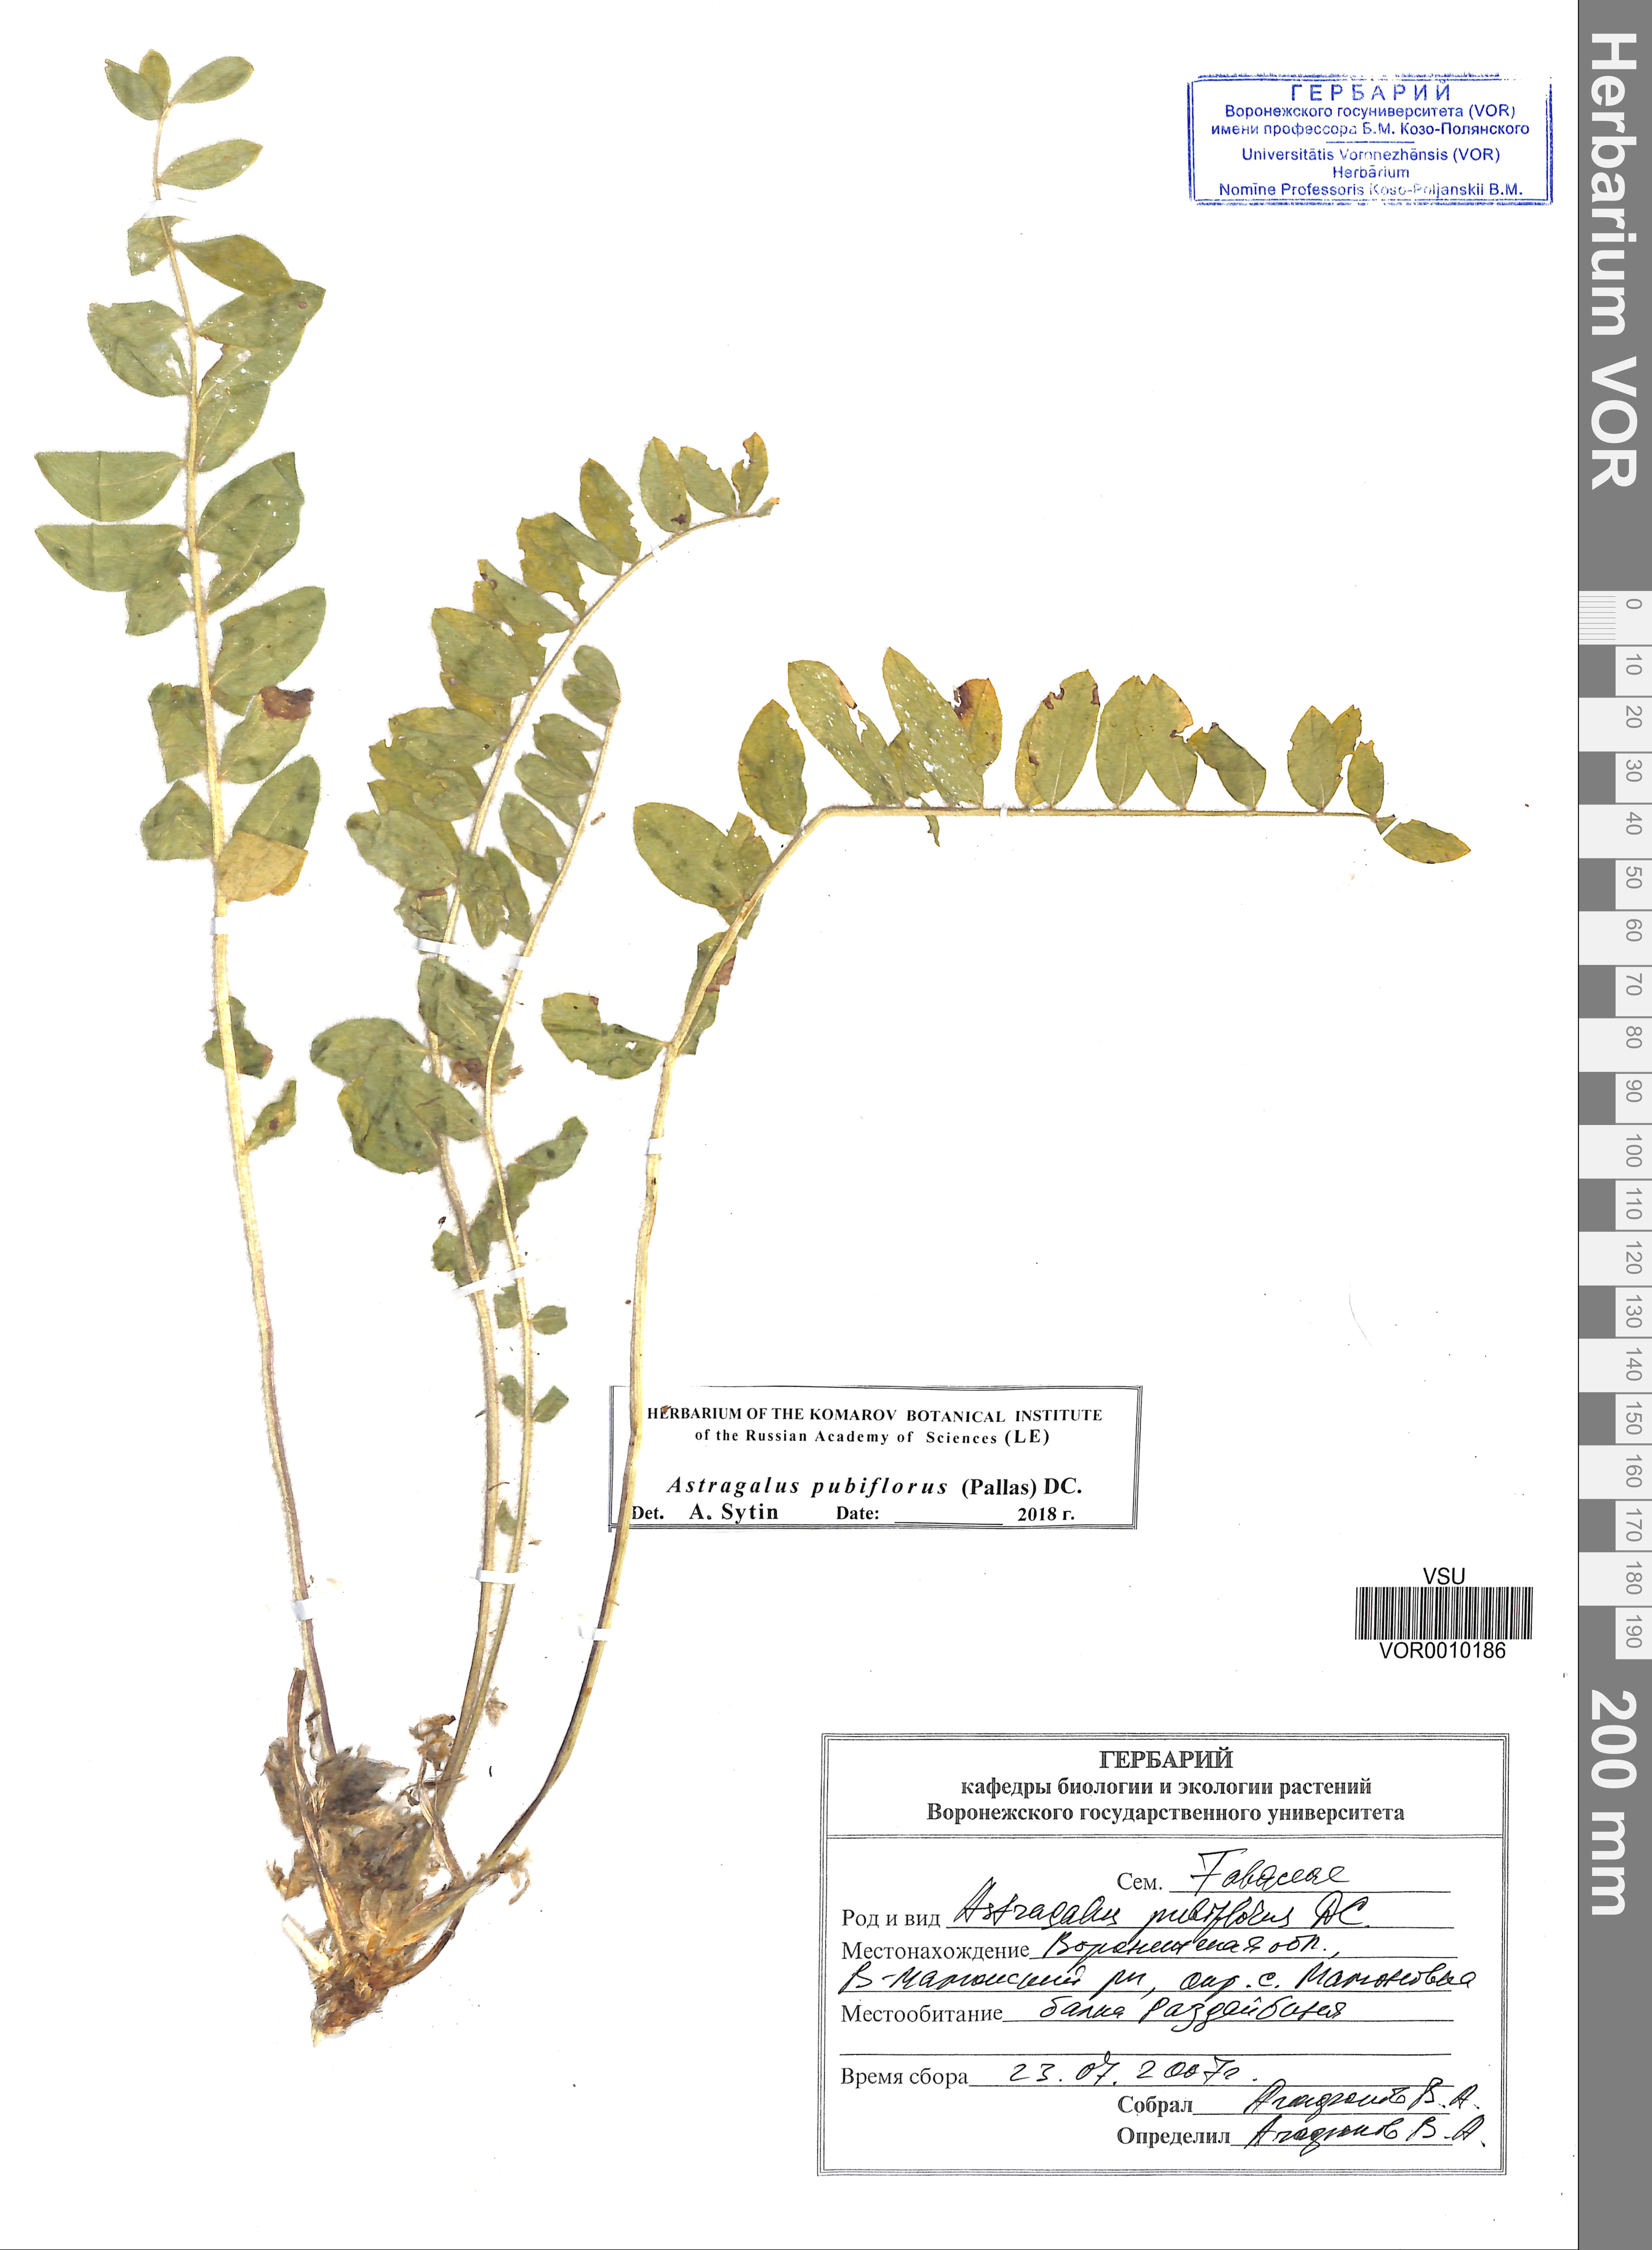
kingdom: Plantae
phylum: Tracheophyta
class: Magnoliopsida
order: Fabales
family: Fabaceae
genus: Astragalus
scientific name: Astragalus exscapus
